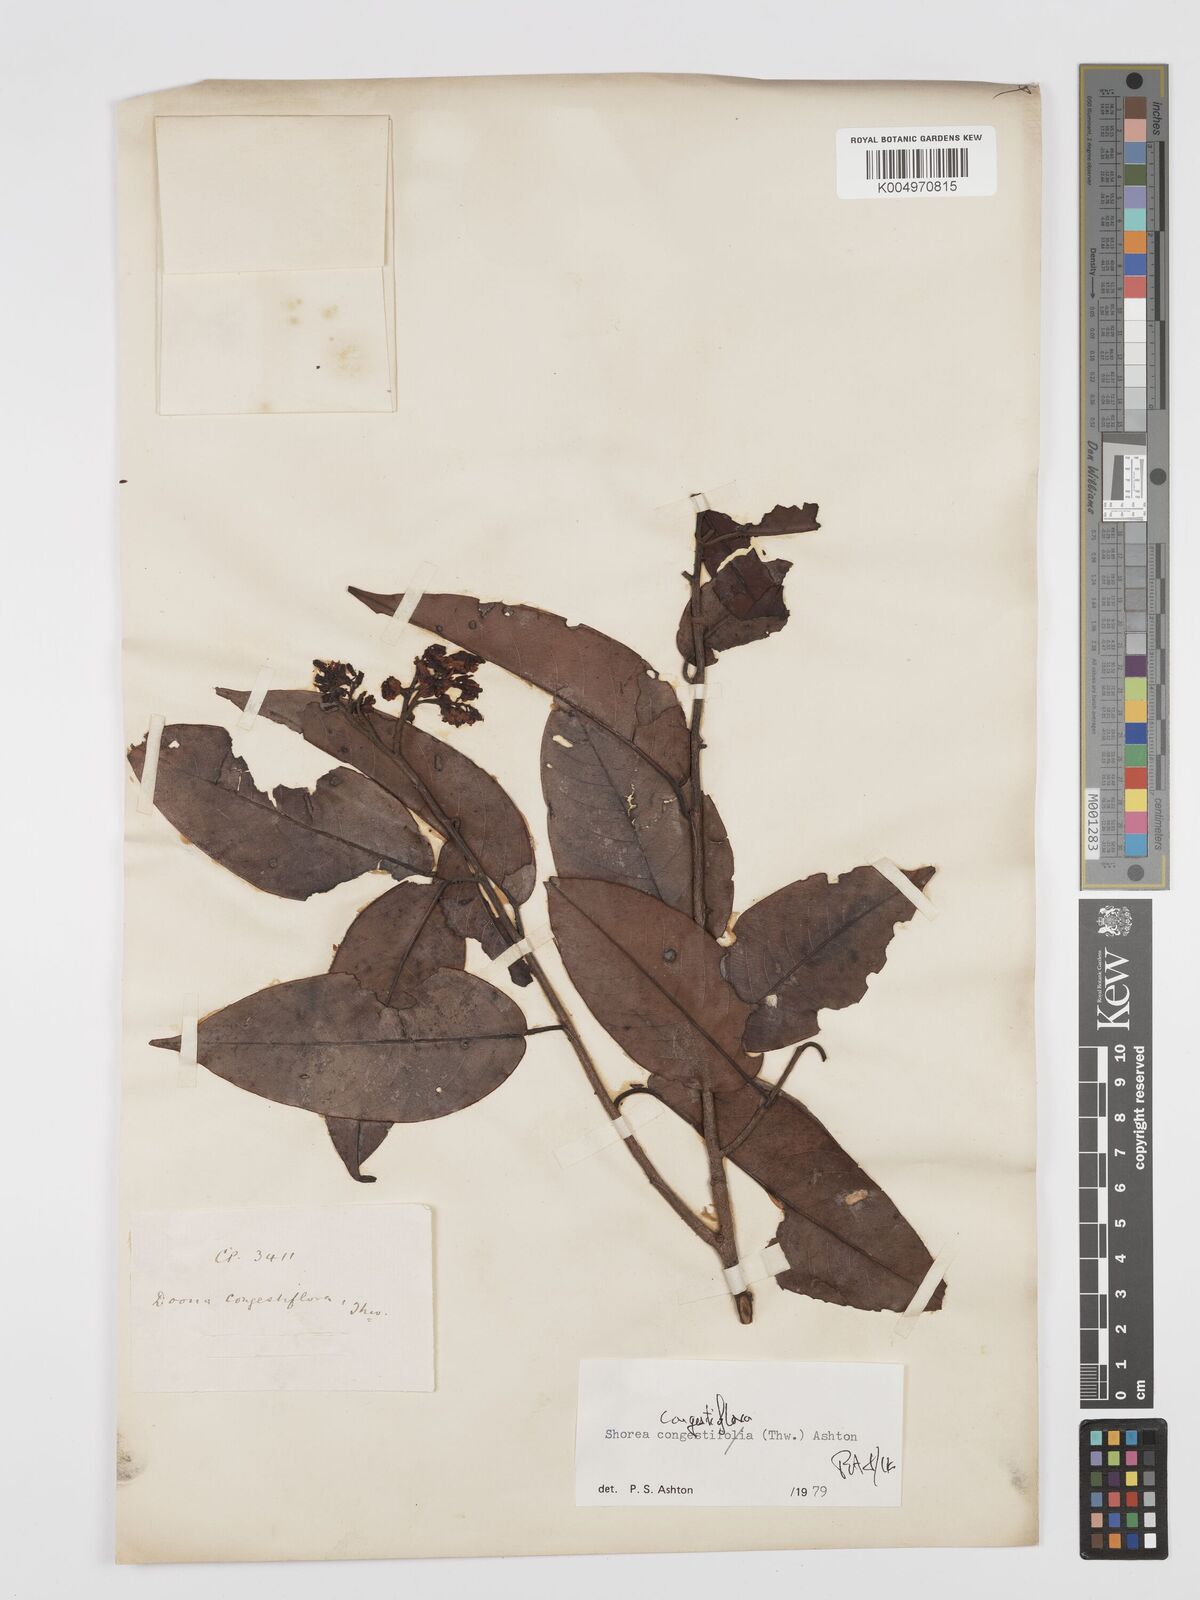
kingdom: Plantae
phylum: Tracheophyta
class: Magnoliopsida
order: Malvales
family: Dipterocarpaceae
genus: Doona
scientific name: Doona congestiflora
